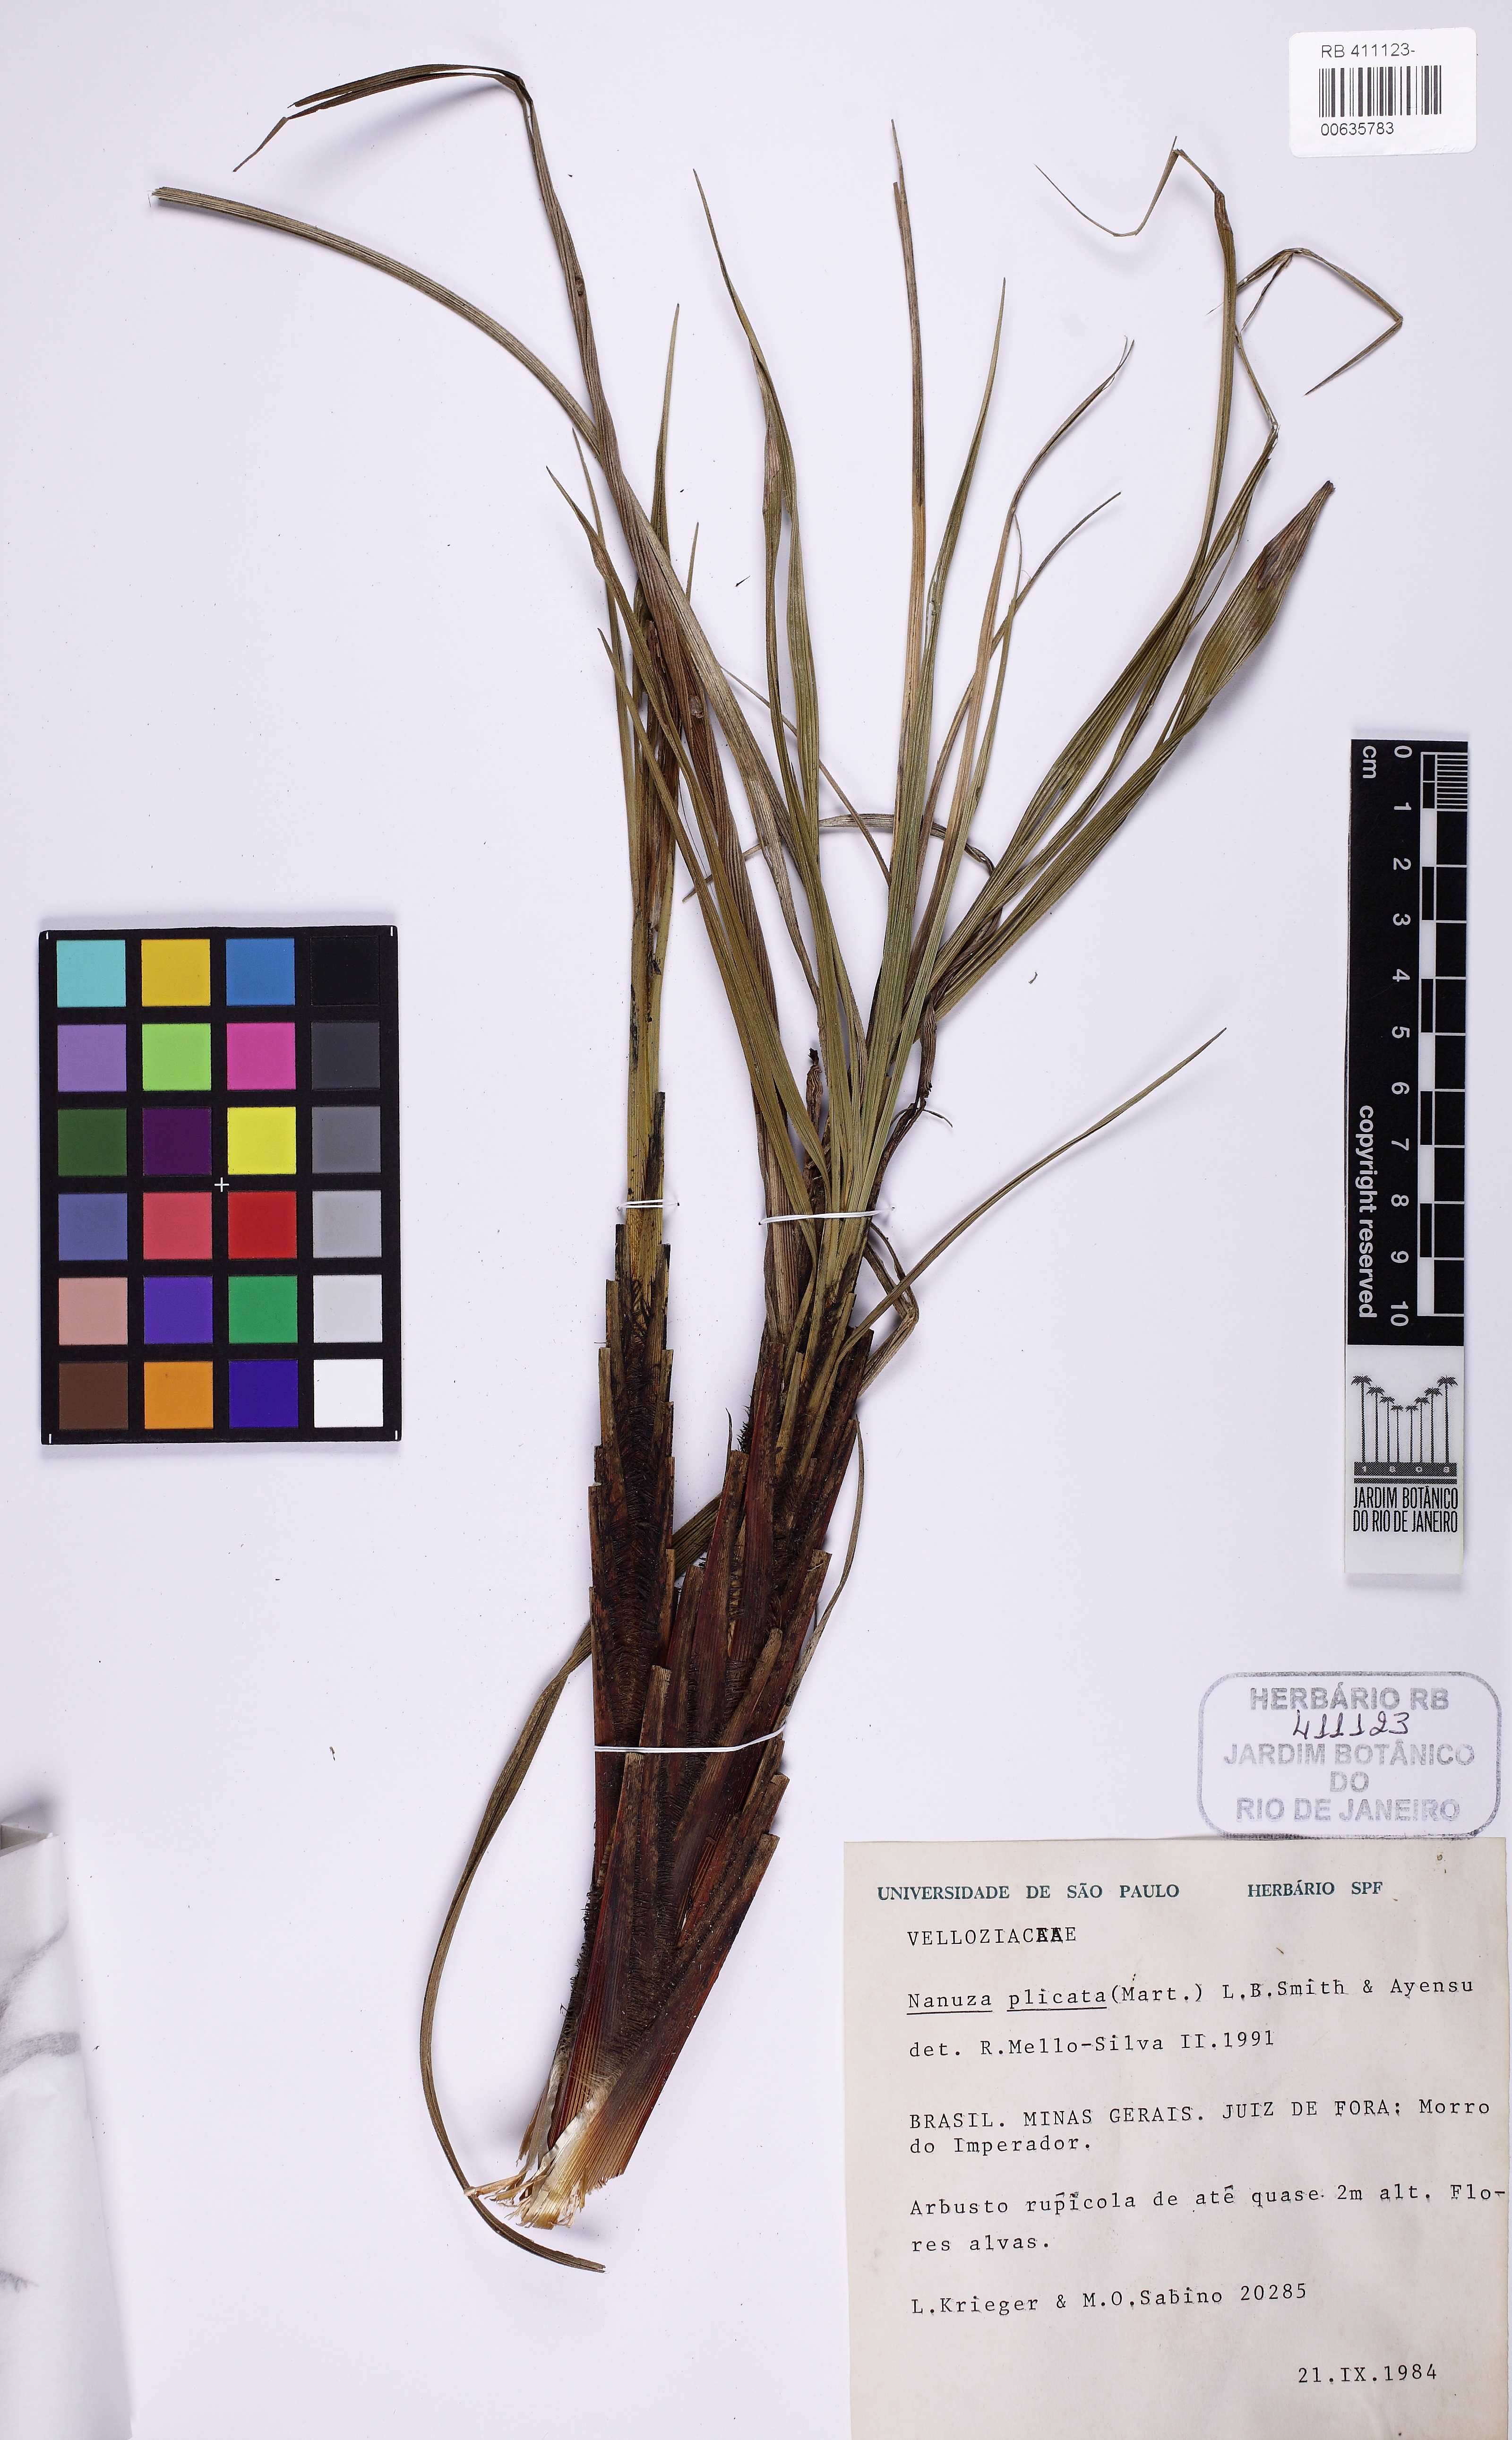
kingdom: Plantae
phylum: Tracheophyta
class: Liliopsida
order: Pandanales
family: Velloziaceae
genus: Nanuza
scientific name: Nanuza plicata
